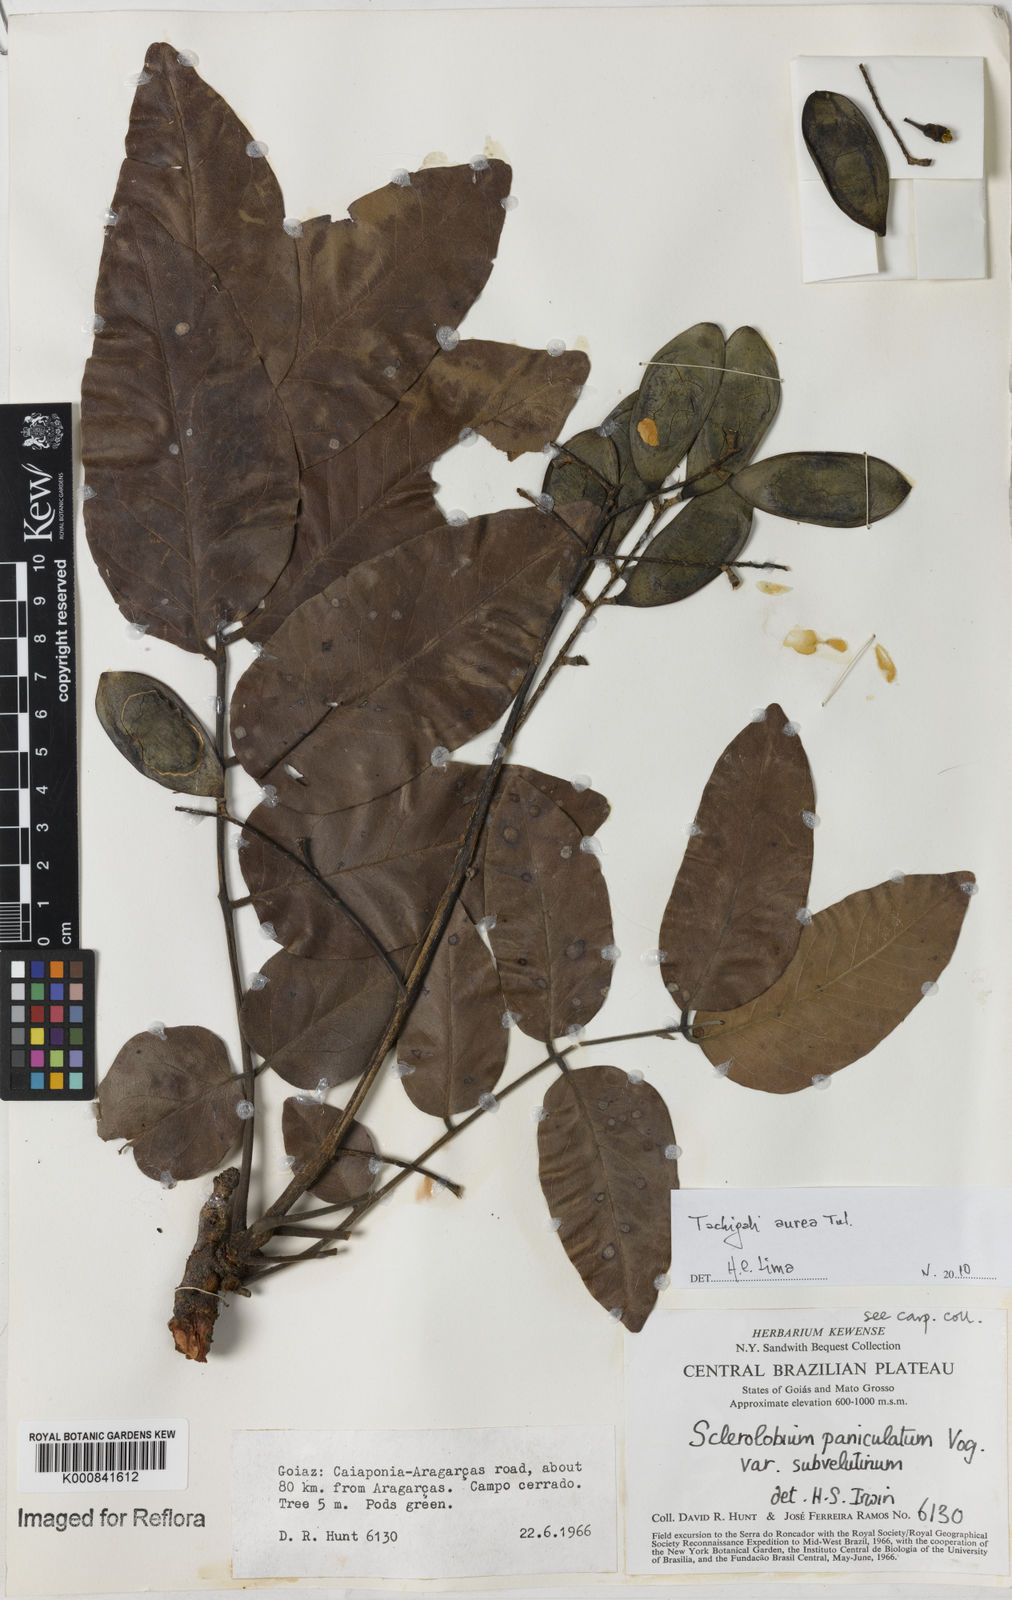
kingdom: Plantae
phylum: Tracheophyta
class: Magnoliopsida
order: Fabales
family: Fabaceae
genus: Tachigali
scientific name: Tachigali aurea
